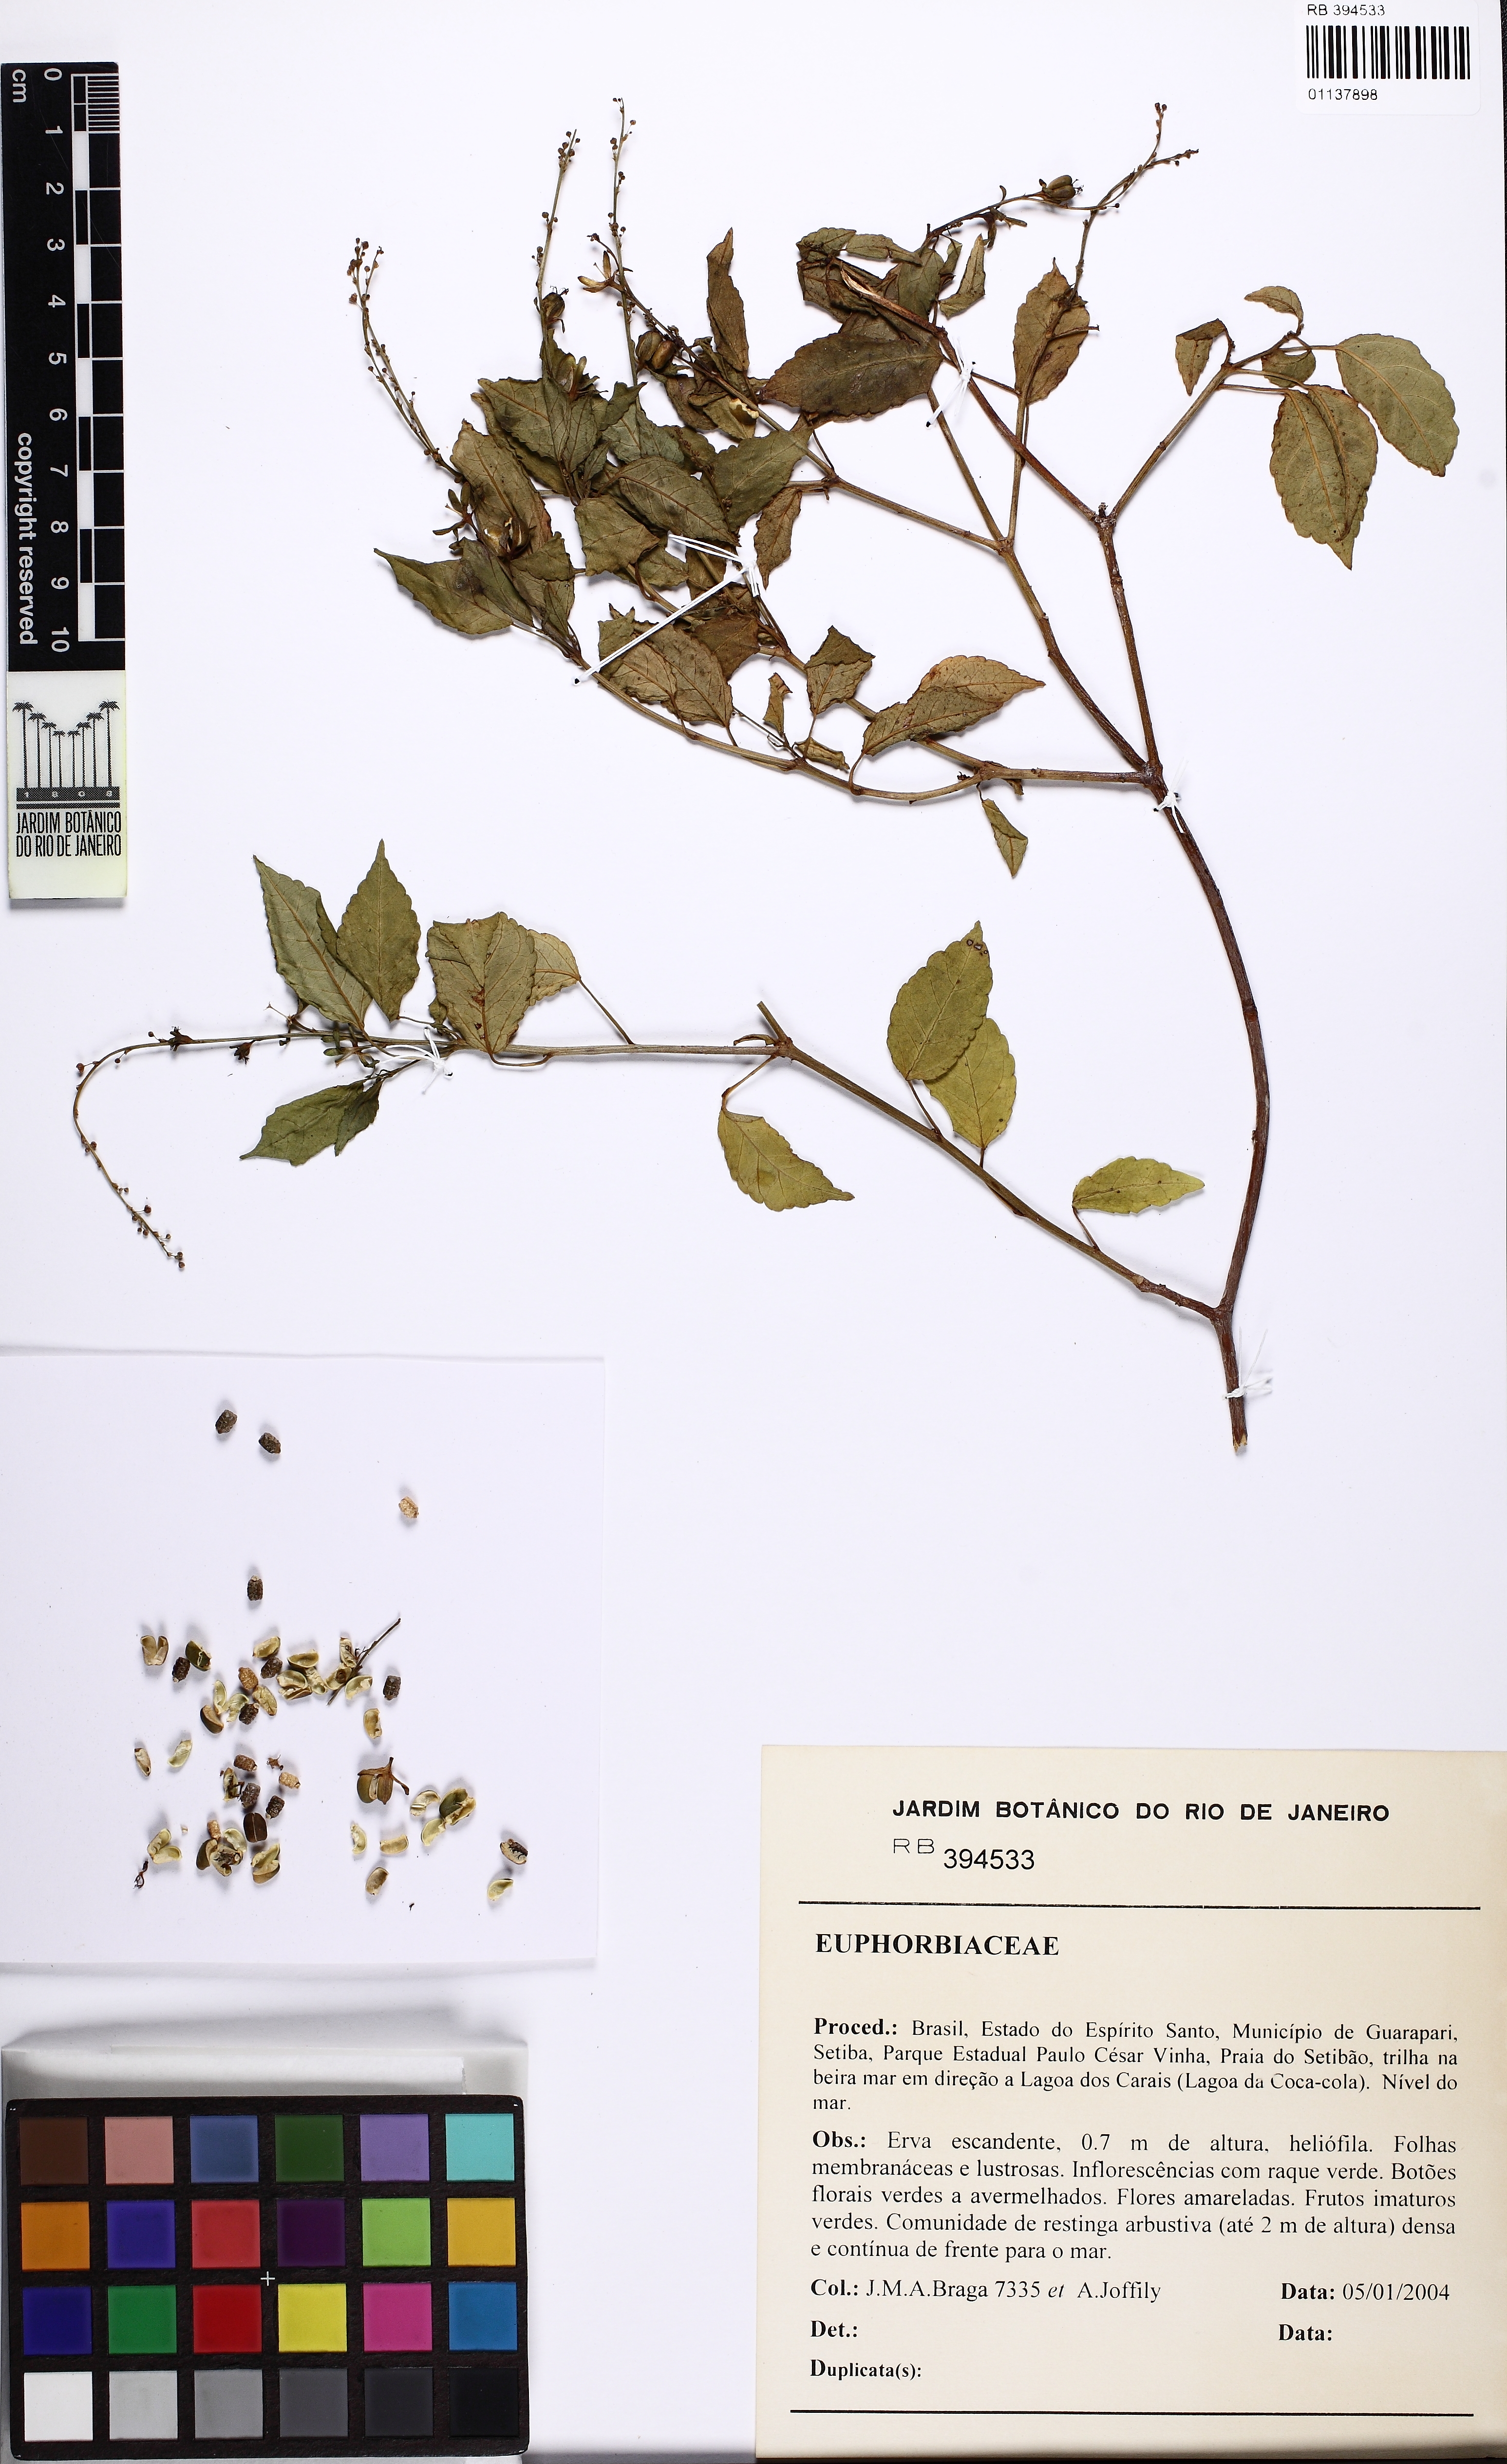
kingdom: Plantae
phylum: Tracheophyta
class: Magnoliopsida
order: Malpighiales
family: Euphorbiaceae
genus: Astraea
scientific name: Astraea macroura
